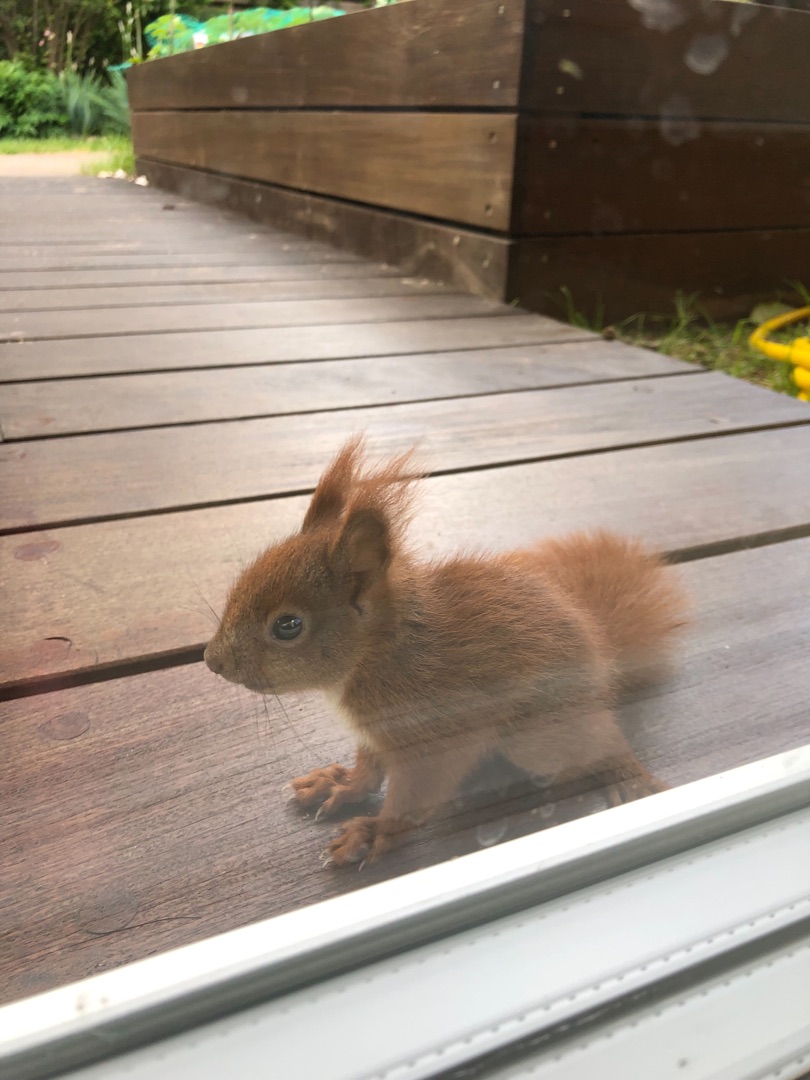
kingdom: Animalia
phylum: Chordata
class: Mammalia
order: Rodentia
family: Sciuridae
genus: Sciurus
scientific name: Sciurus vulgaris
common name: Egern
